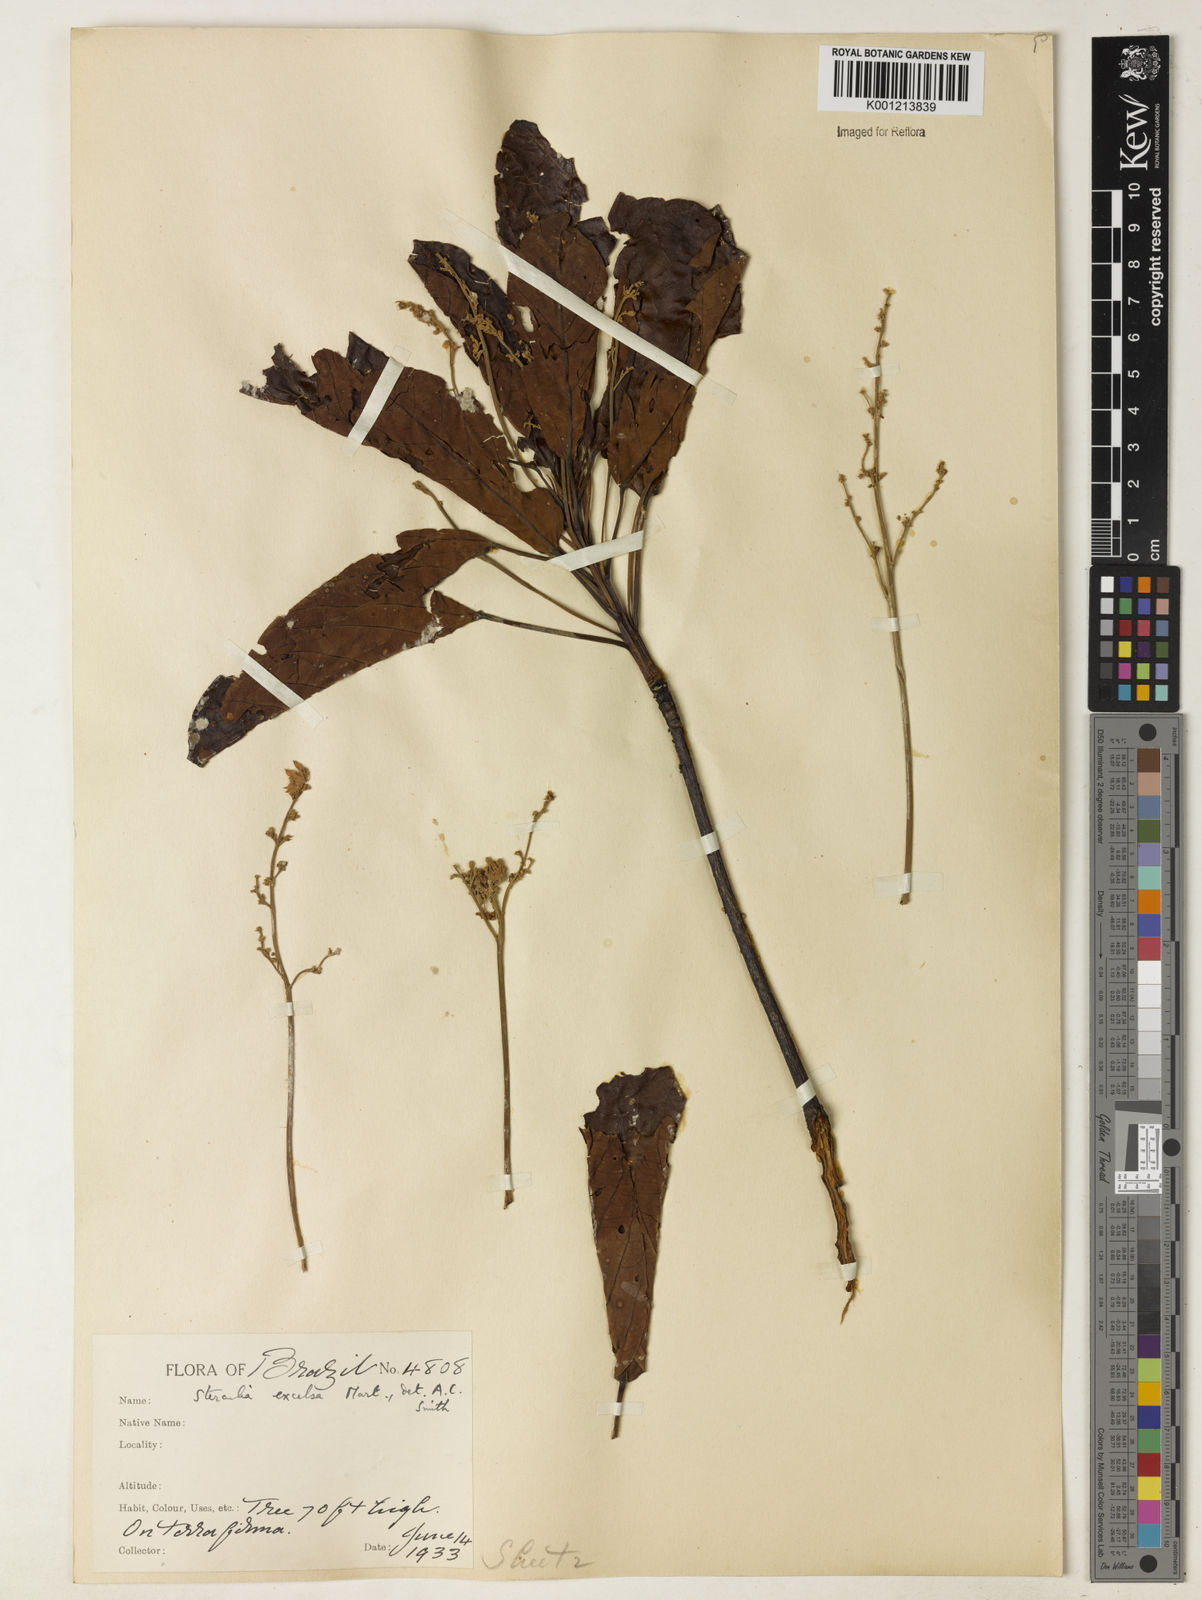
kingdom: Plantae
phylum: Tracheophyta
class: Magnoliopsida
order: Malvales
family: Malvaceae
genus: Sterculia
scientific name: Sterculia excelsa
